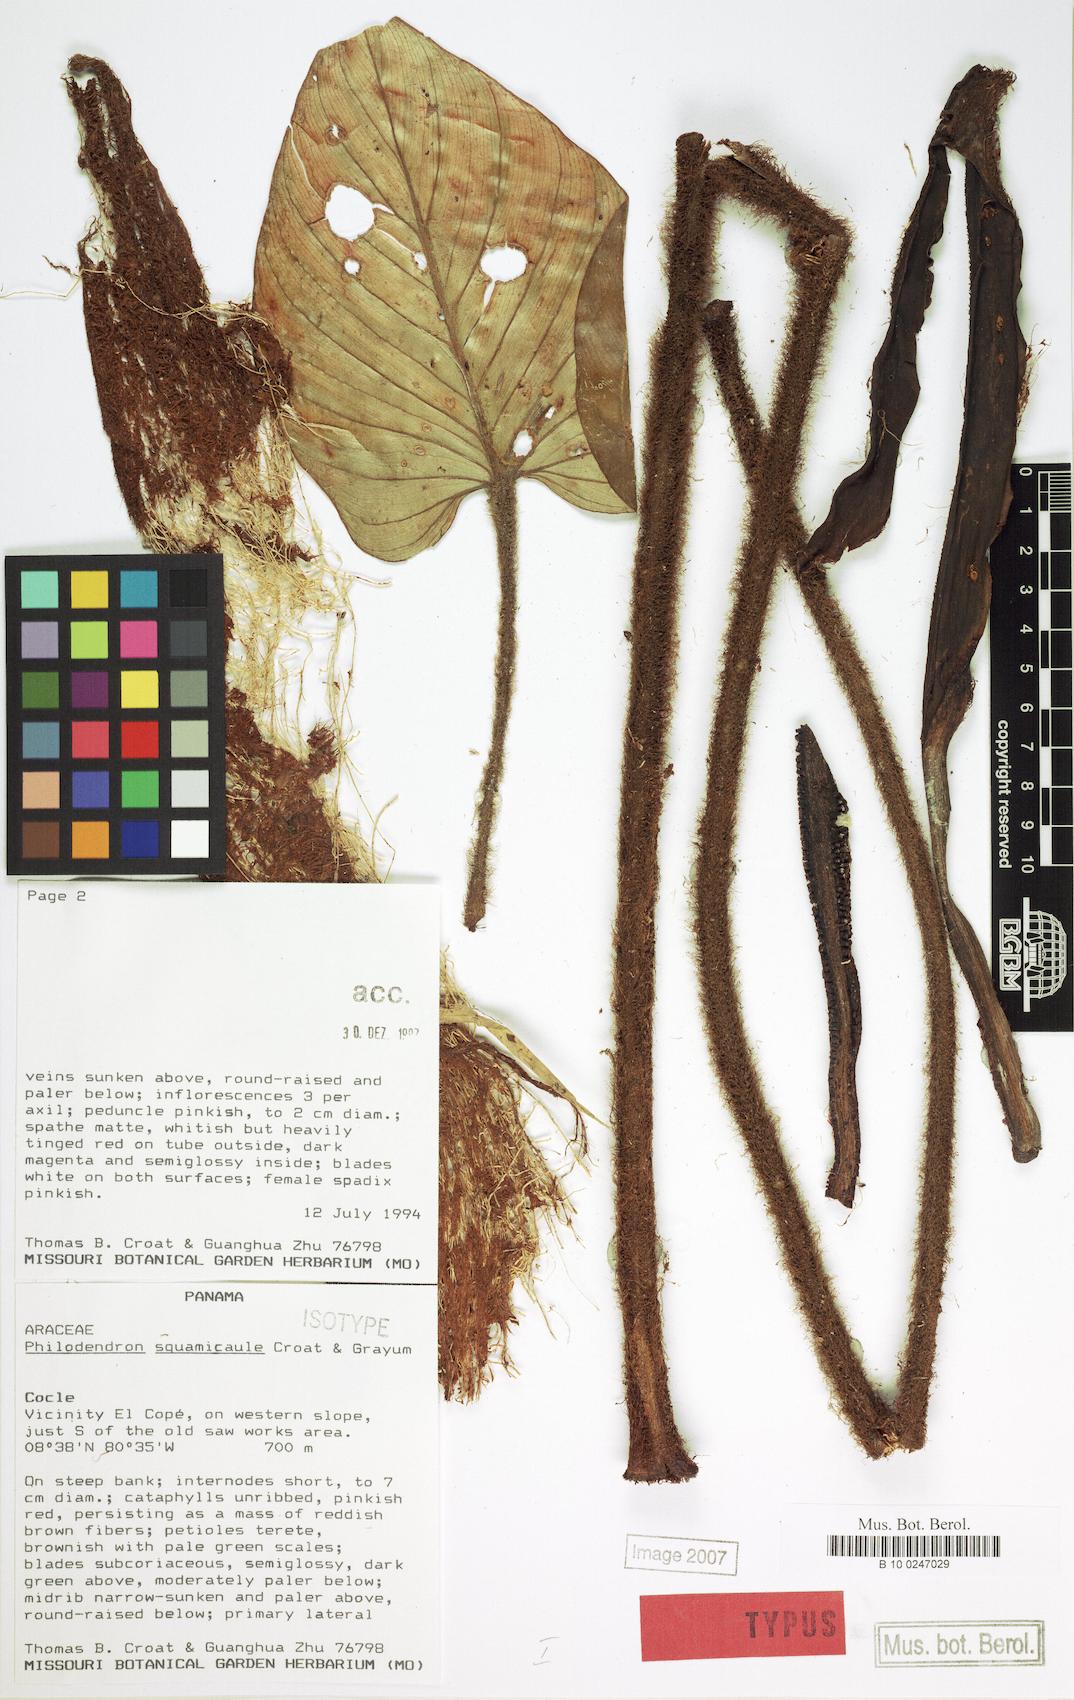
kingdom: Plantae
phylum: Tracheophyta
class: Liliopsida
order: Alismatales
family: Araceae
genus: Philodendron
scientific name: Philodendron squamicaule
